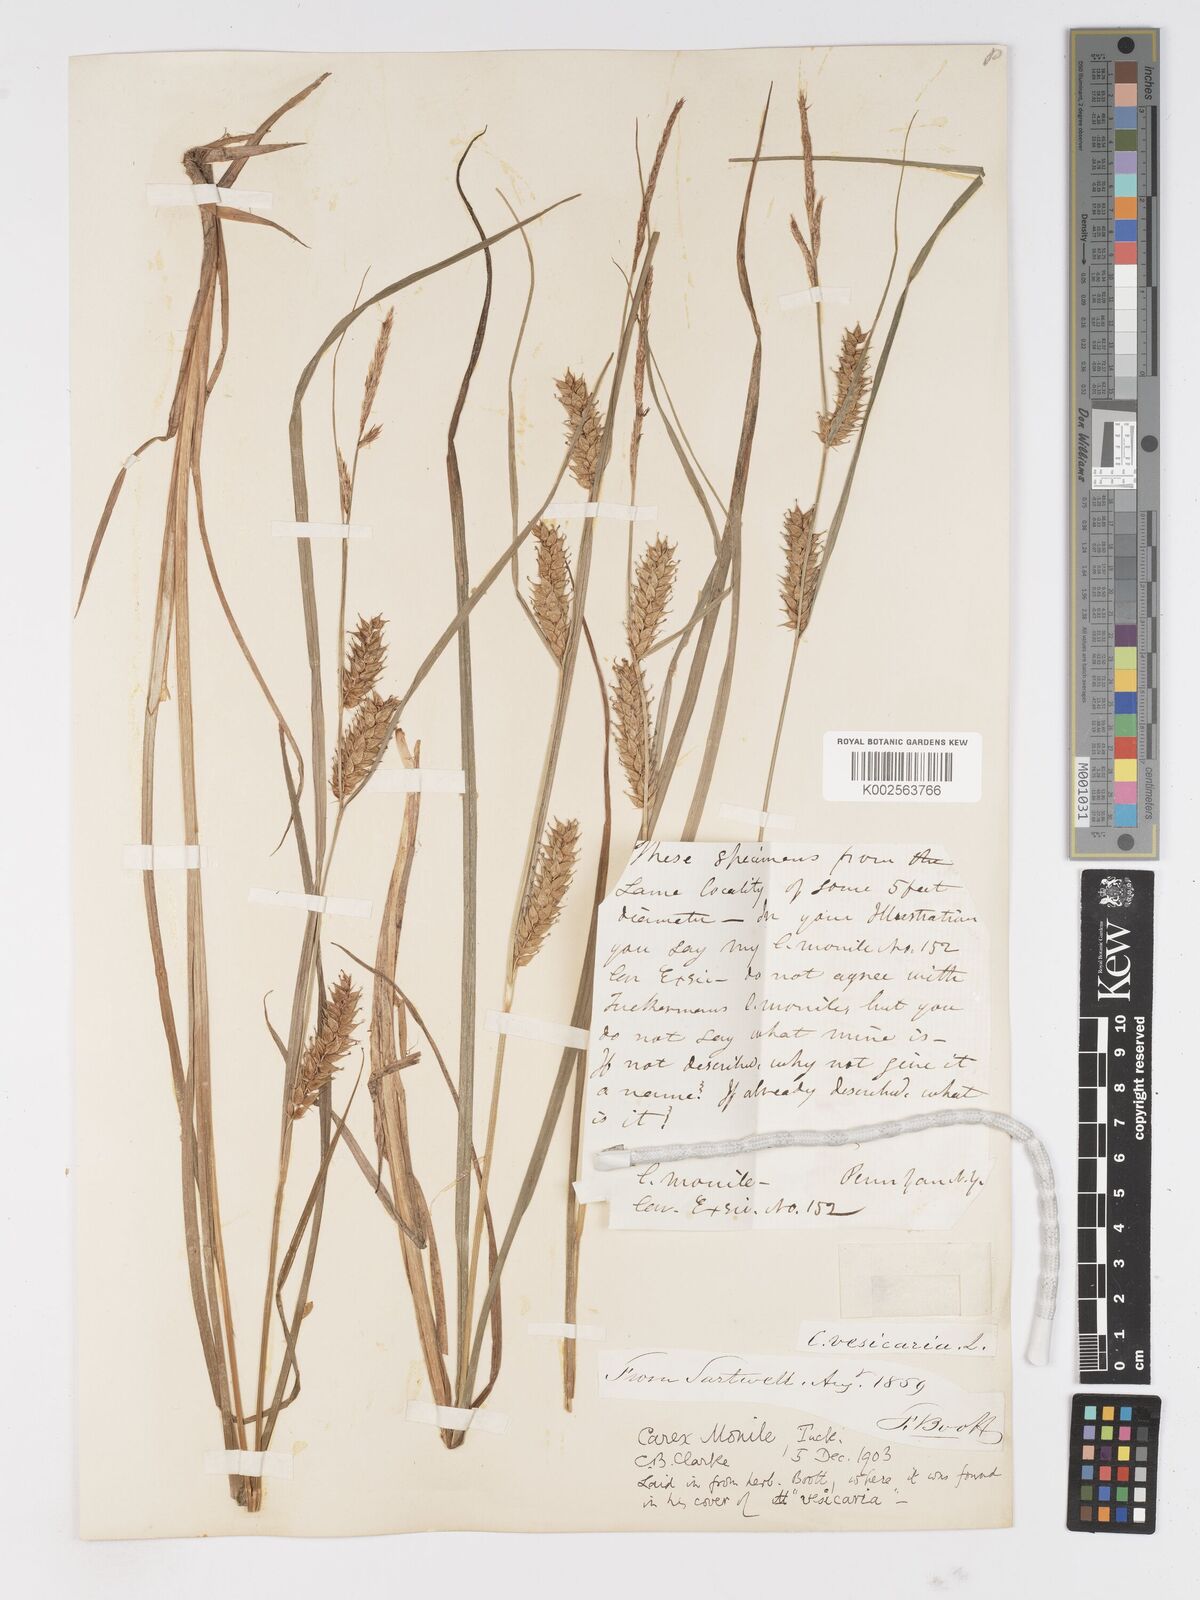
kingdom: Plantae
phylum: Tracheophyta
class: Liliopsida
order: Poales
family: Cyperaceae
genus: Carex
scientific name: Carex vesicaria
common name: Bladder-sedge
